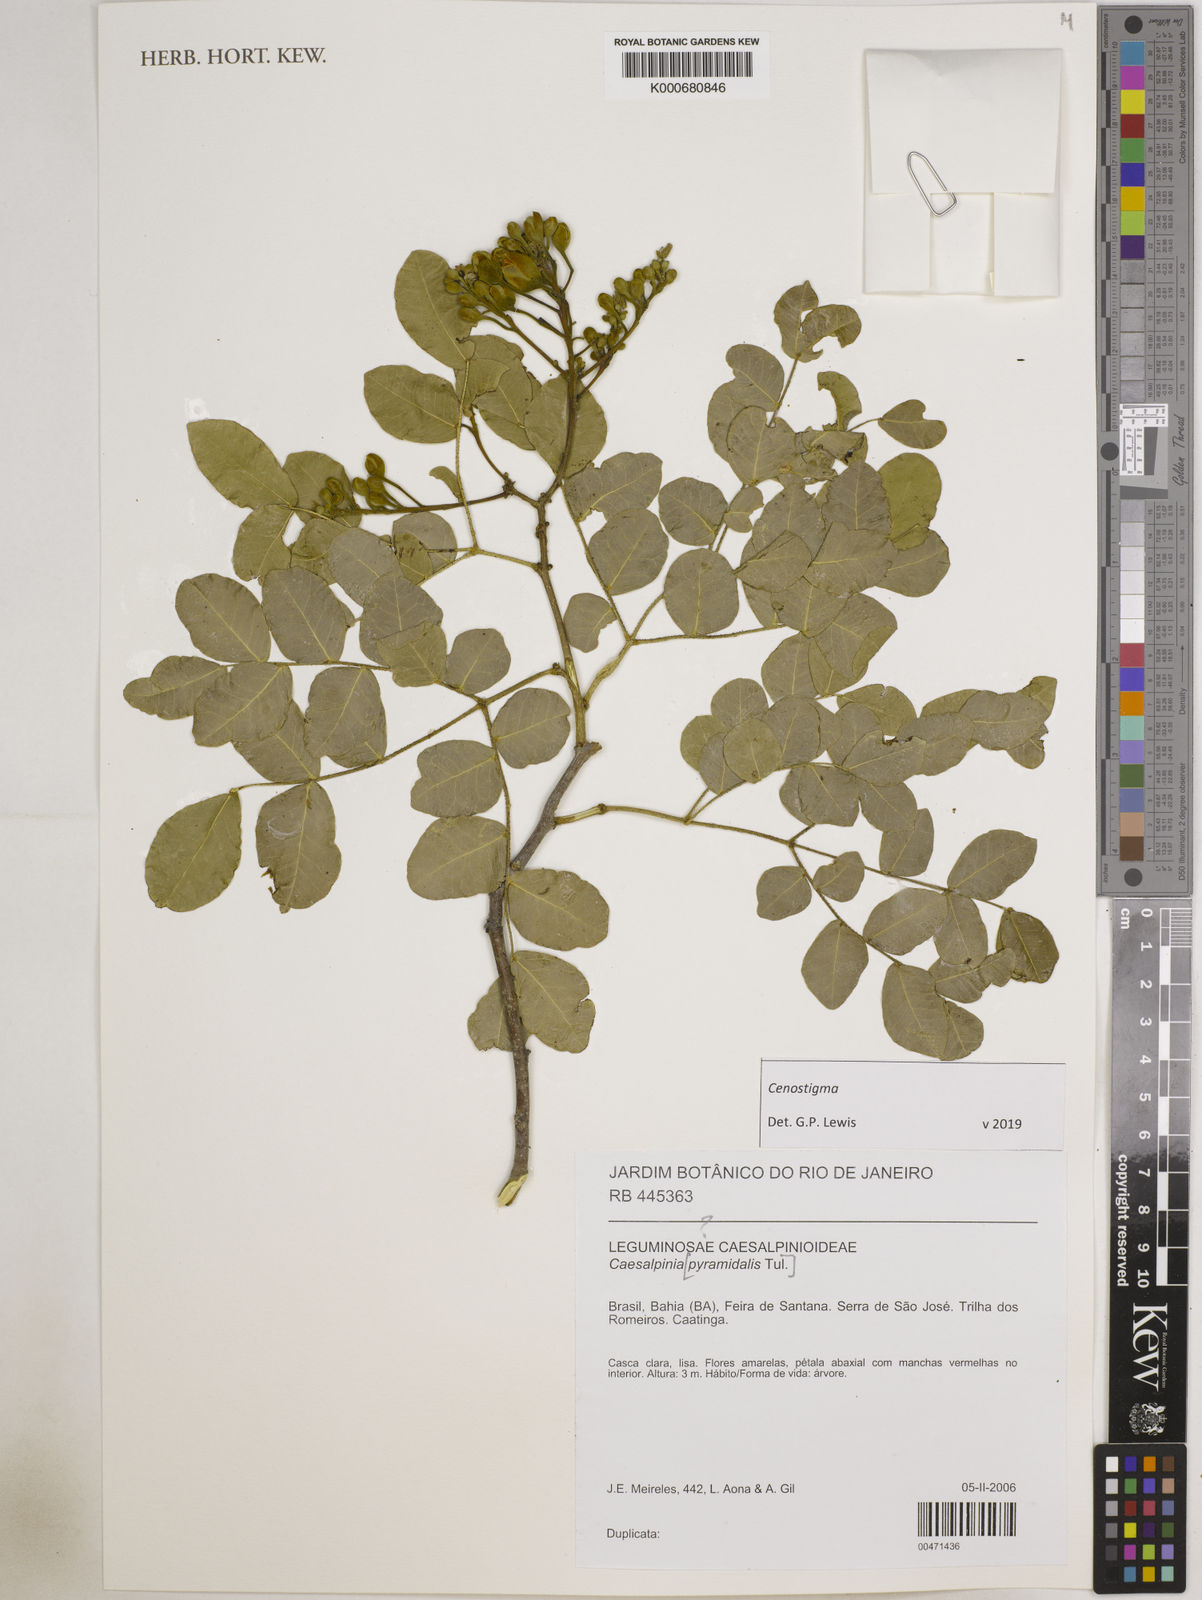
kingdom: Plantae
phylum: Tracheophyta
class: Magnoliopsida
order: Fabales
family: Fabaceae
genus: Cenostigma
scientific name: Cenostigma pyramidale
